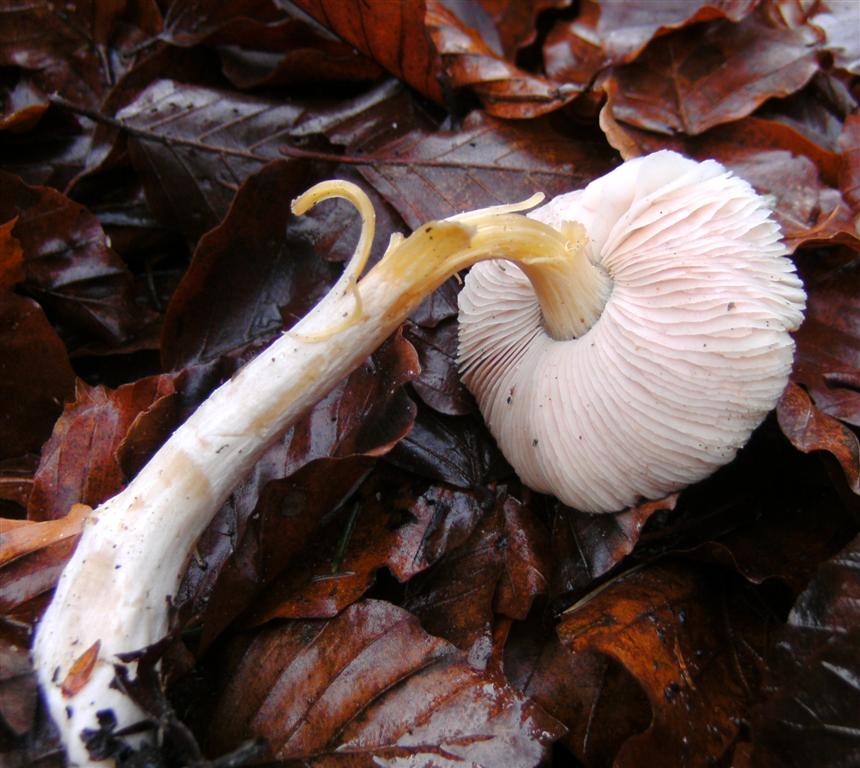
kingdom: Fungi
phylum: Basidiomycota
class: Agaricomycetes
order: Agaricales
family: Pluteaceae
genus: Pluteus
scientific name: Pluteus romellii
